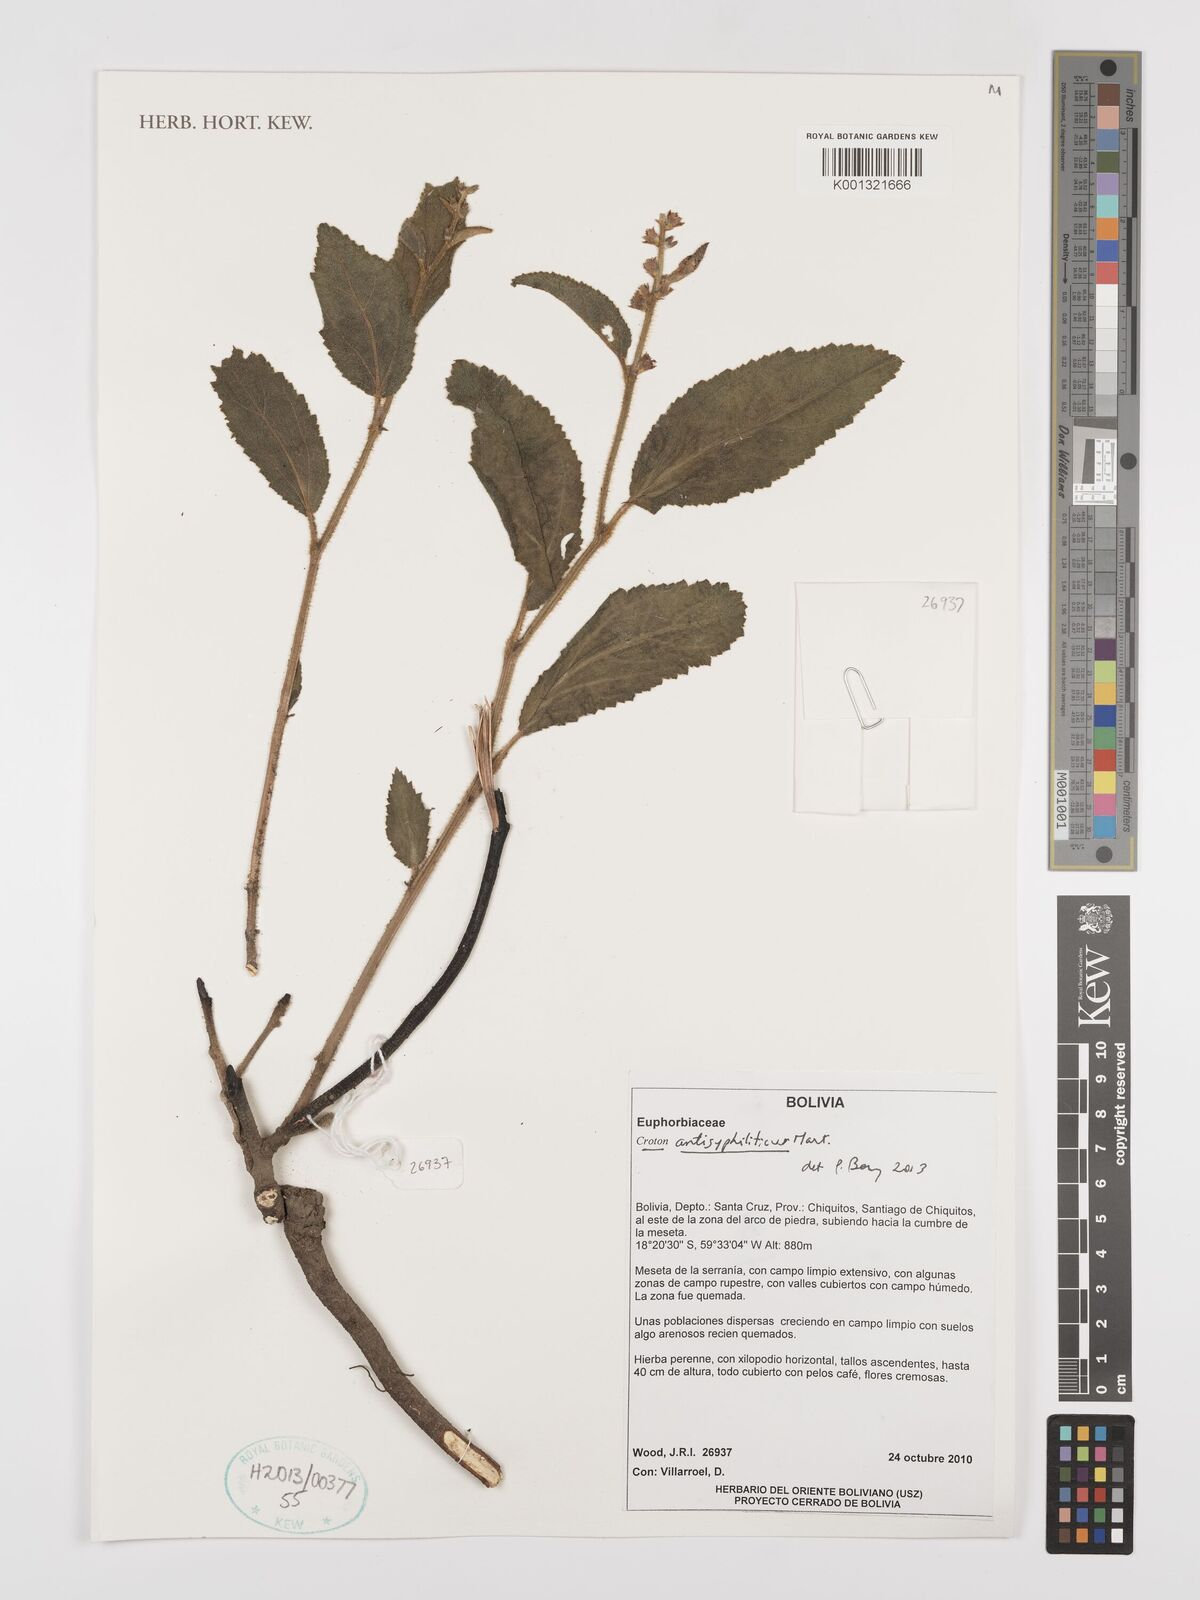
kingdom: Plantae
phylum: Tracheophyta
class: Magnoliopsida
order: Malpighiales
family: Euphorbiaceae
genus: Croton
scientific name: Croton antisyphiliticus
